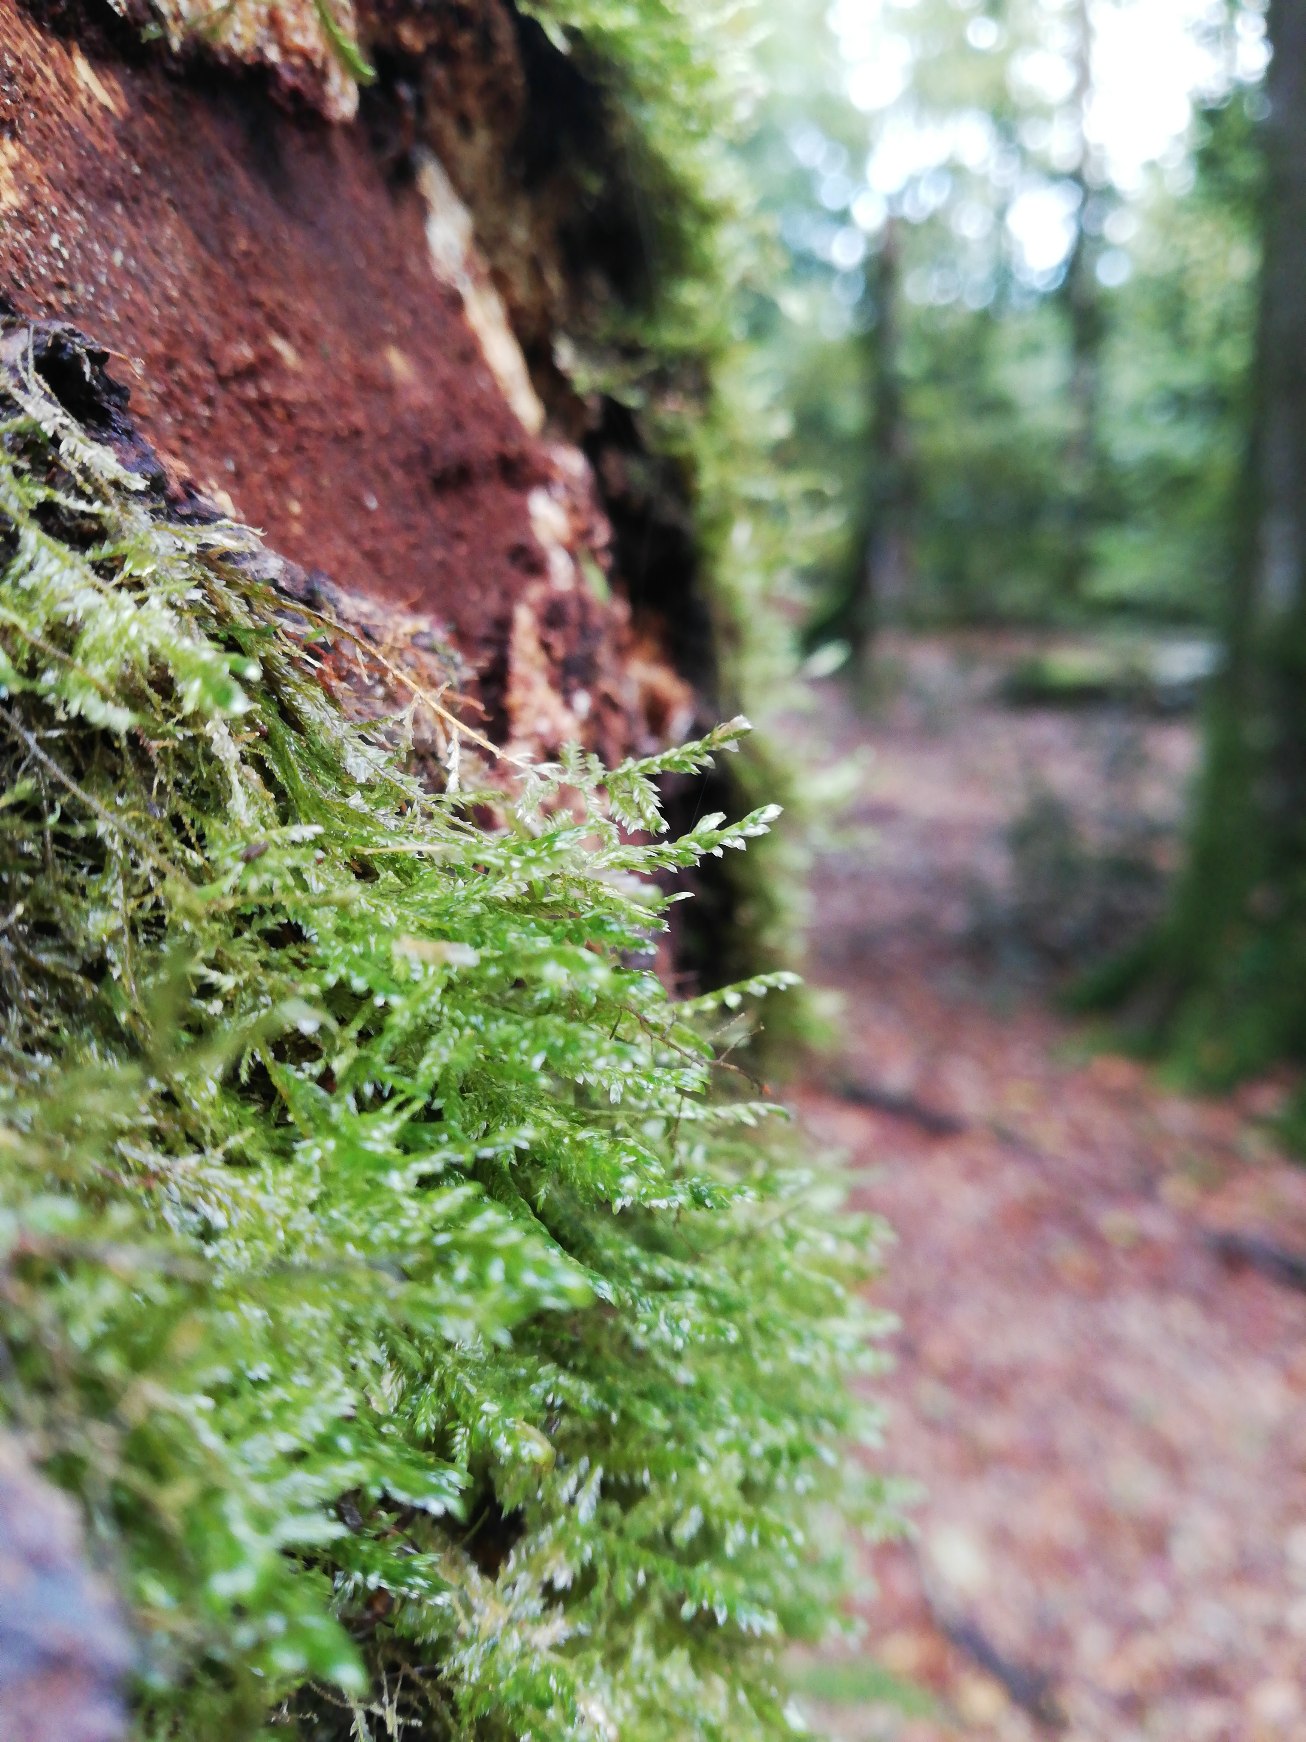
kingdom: Plantae
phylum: Bryophyta
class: Bryopsida
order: Hypnales
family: Neckeraceae
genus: Alleniella
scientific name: Alleniella complanata
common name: Almindelig fladmos
